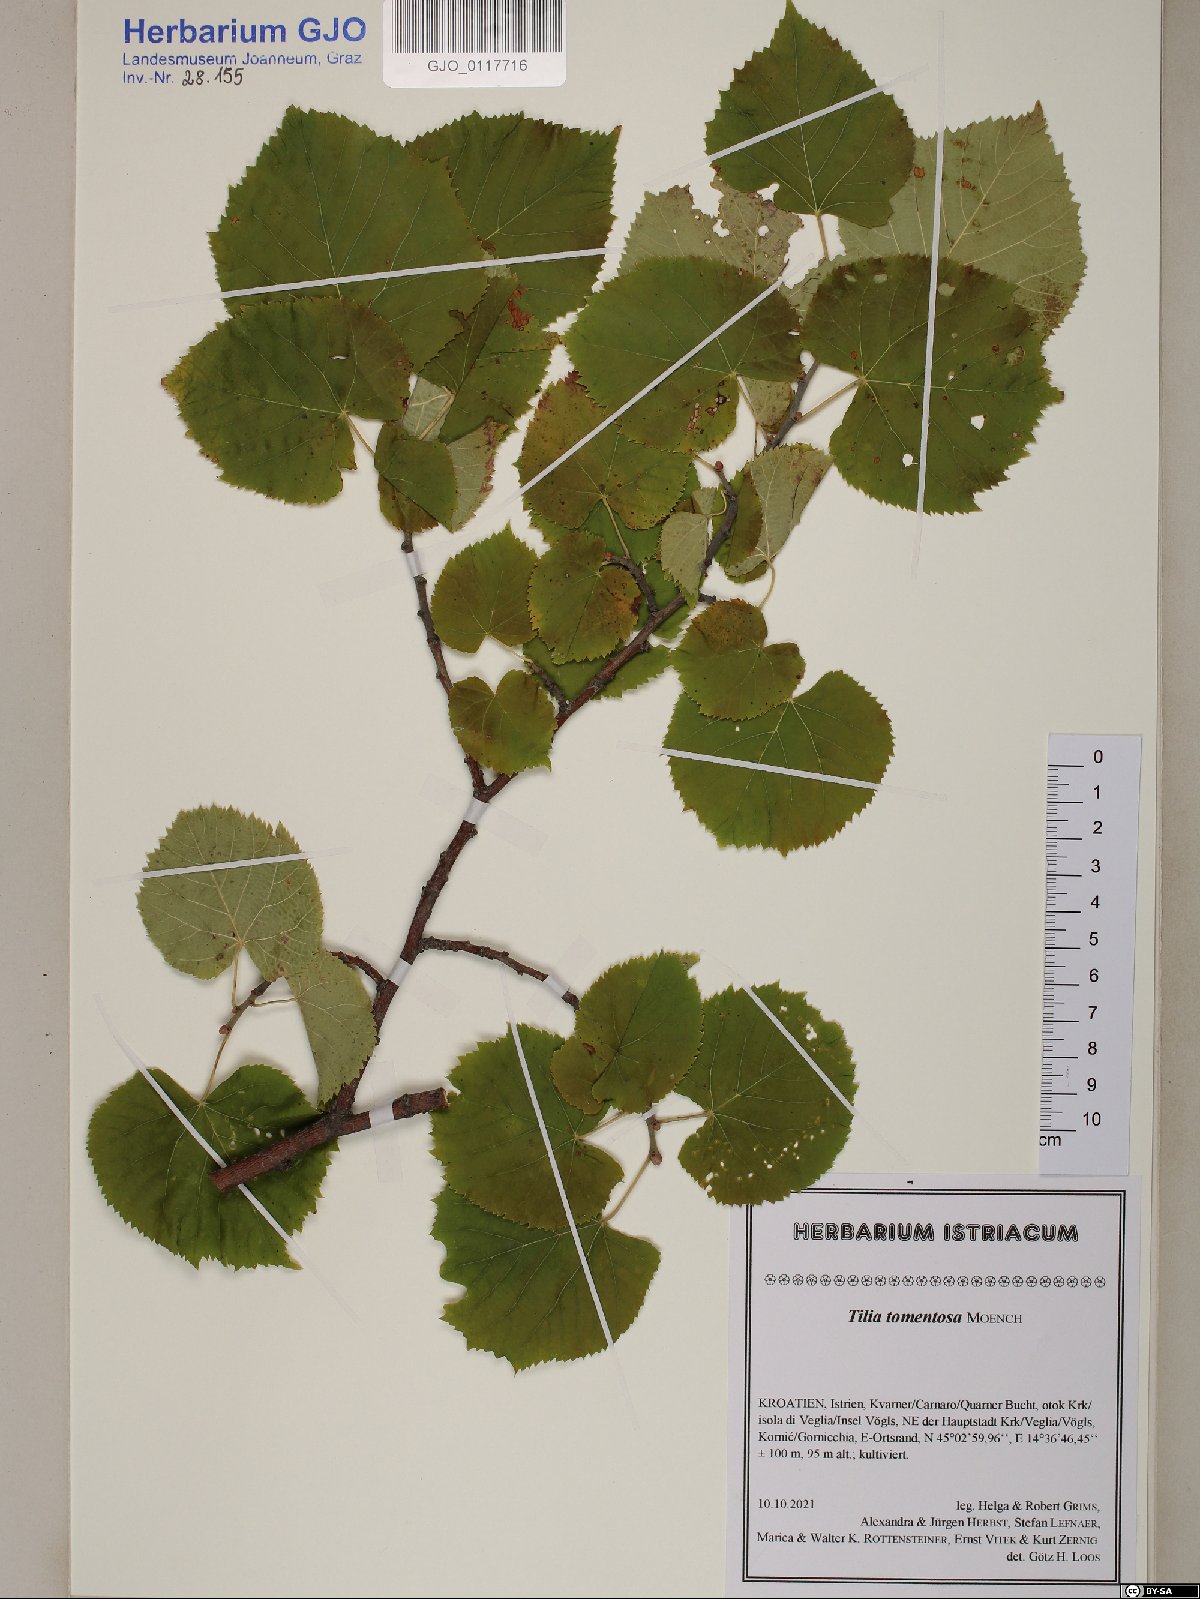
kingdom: Plantae
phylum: Tracheophyta
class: Magnoliopsida
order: Malvales
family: Malvaceae
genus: Tilia
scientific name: Tilia tomentosa
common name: Silver lime
